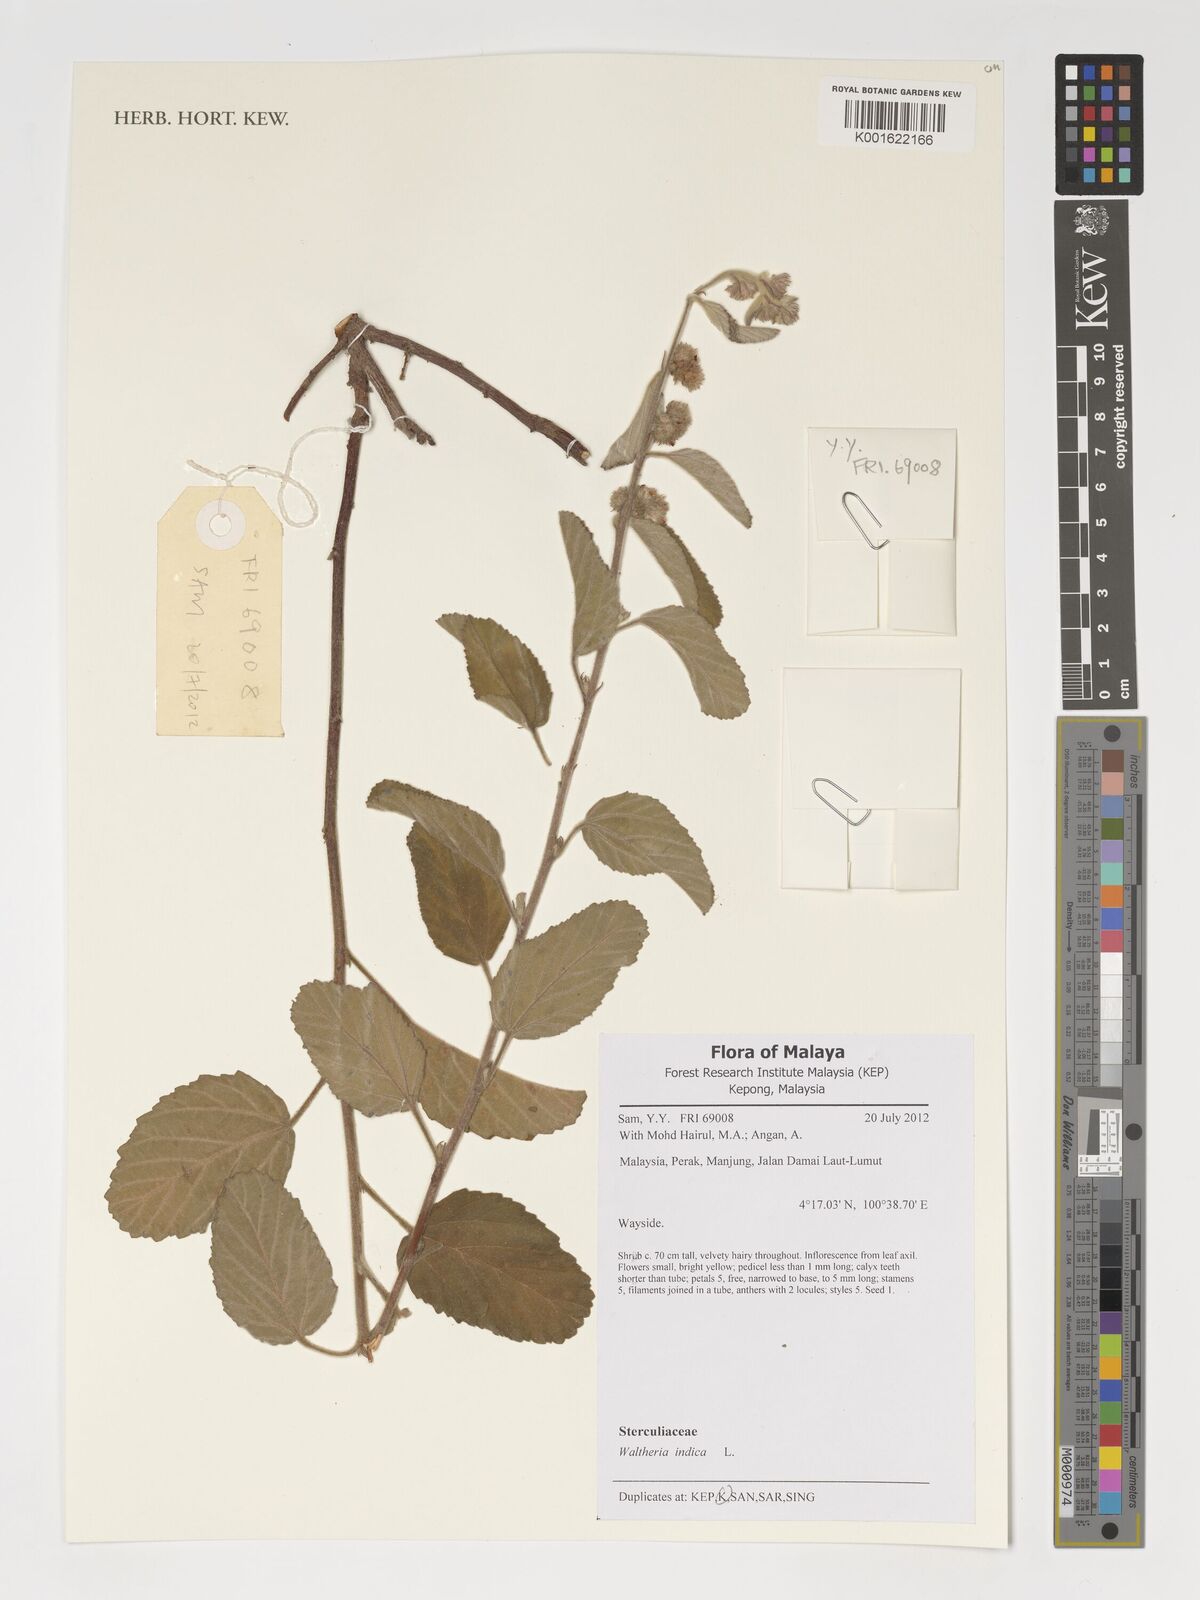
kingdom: Plantae
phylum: Tracheophyta
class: Magnoliopsida
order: Malvales
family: Malvaceae
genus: Waltheria
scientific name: Waltheria indica
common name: Leather-coat
